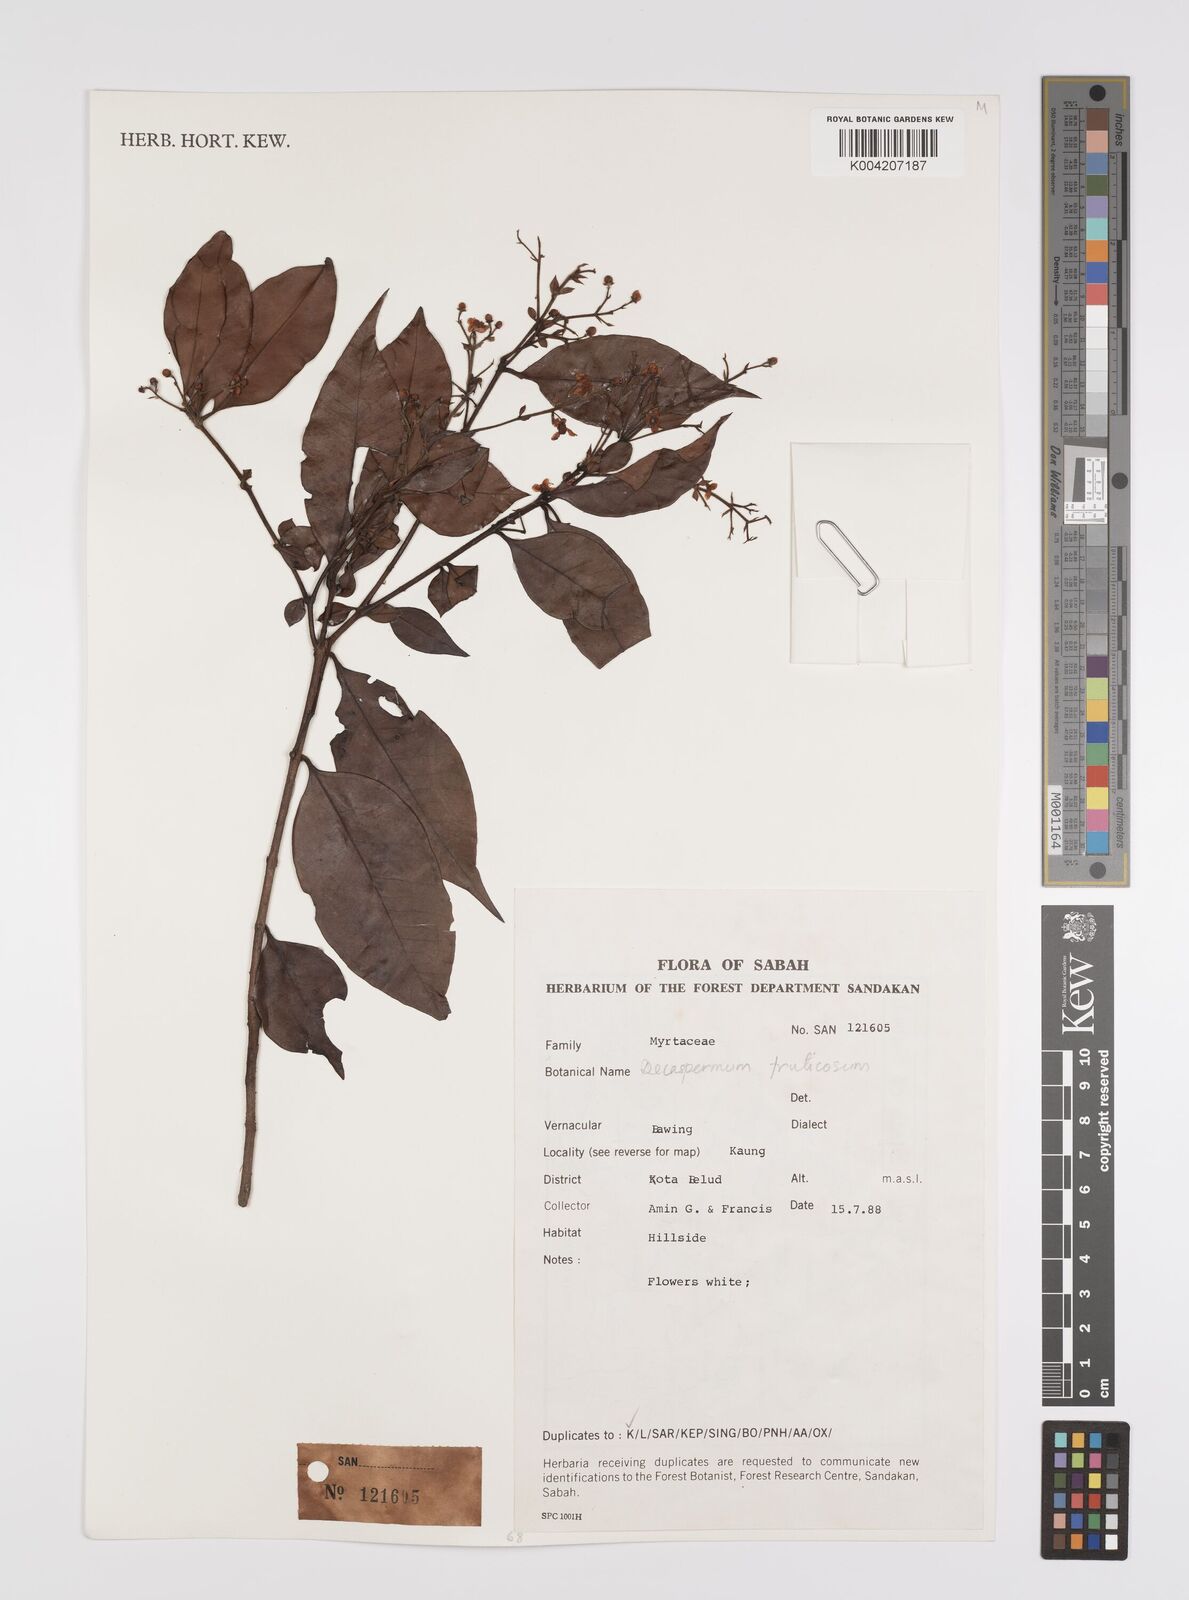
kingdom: Plantae
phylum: Tracheophyta
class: Magnoliopsida
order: Myrtales
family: Myrtaceae
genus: Decaspermum
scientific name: Decaspermum parviflorum
